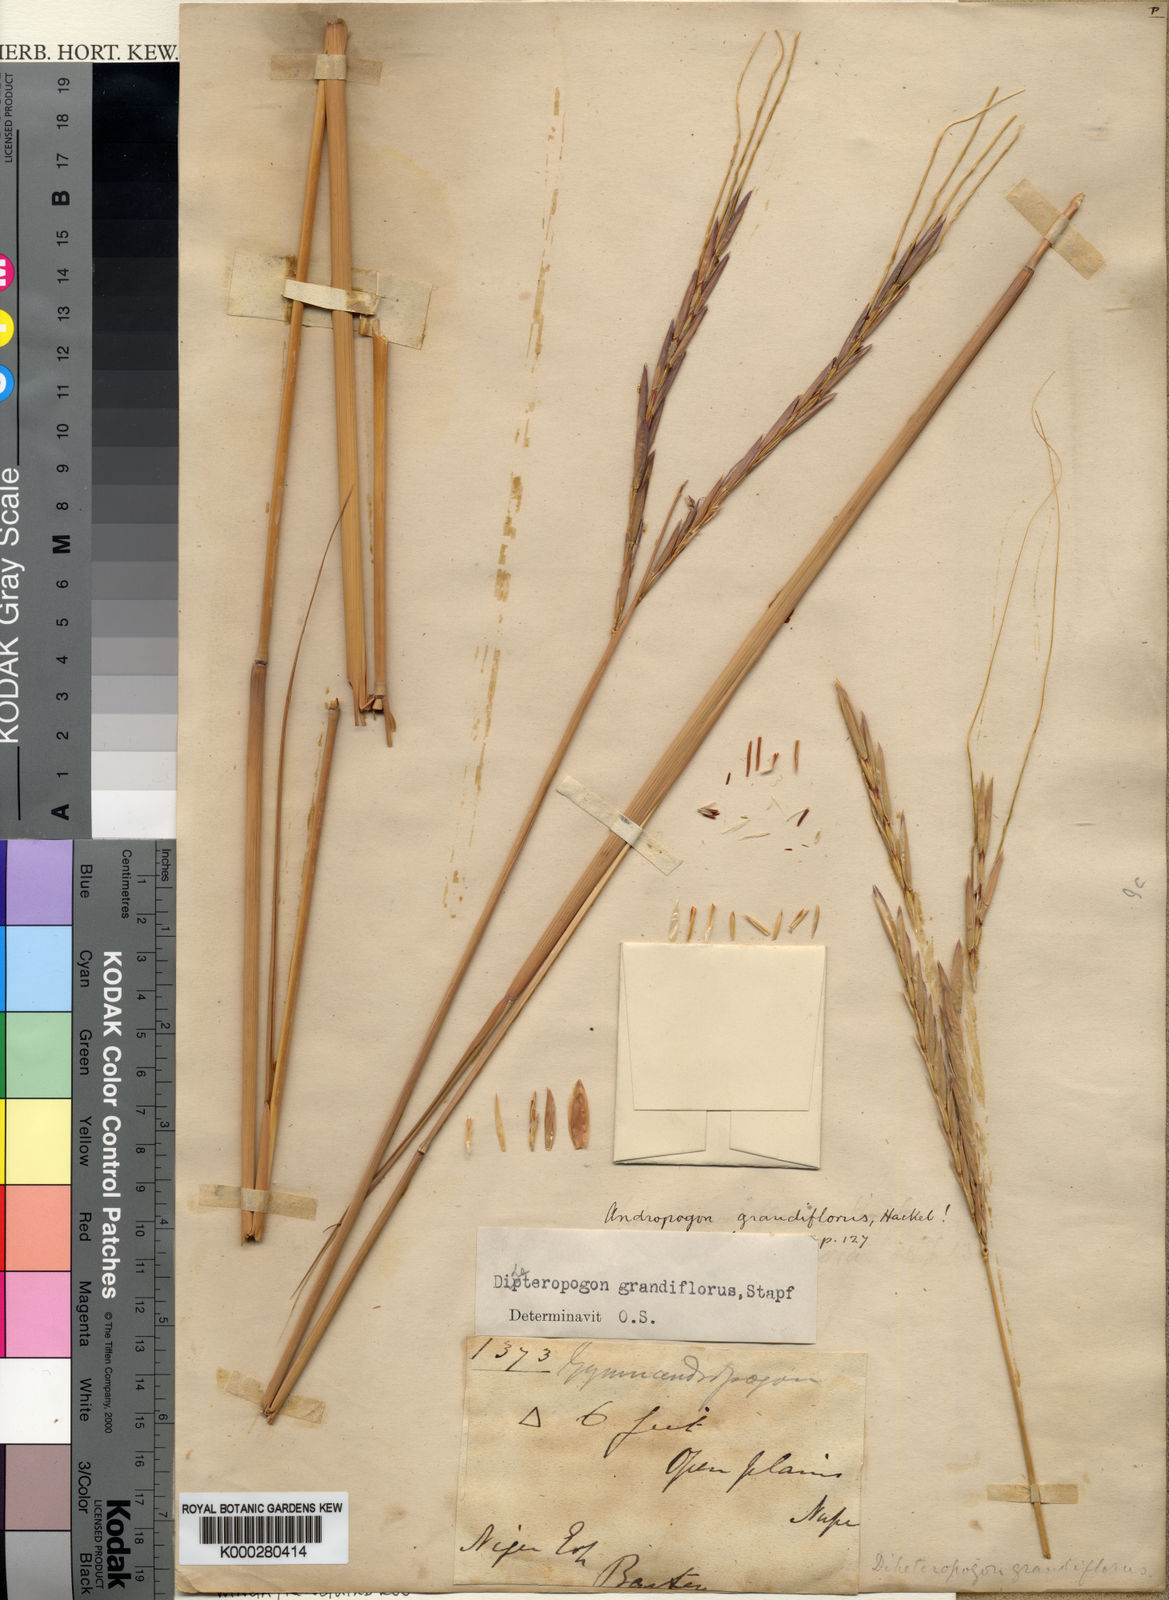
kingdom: Plantae
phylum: Tracheophyta
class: Liliopsida
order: Poales
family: Poaceae
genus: Diheteropogon
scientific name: Diheteropogon filifolius
